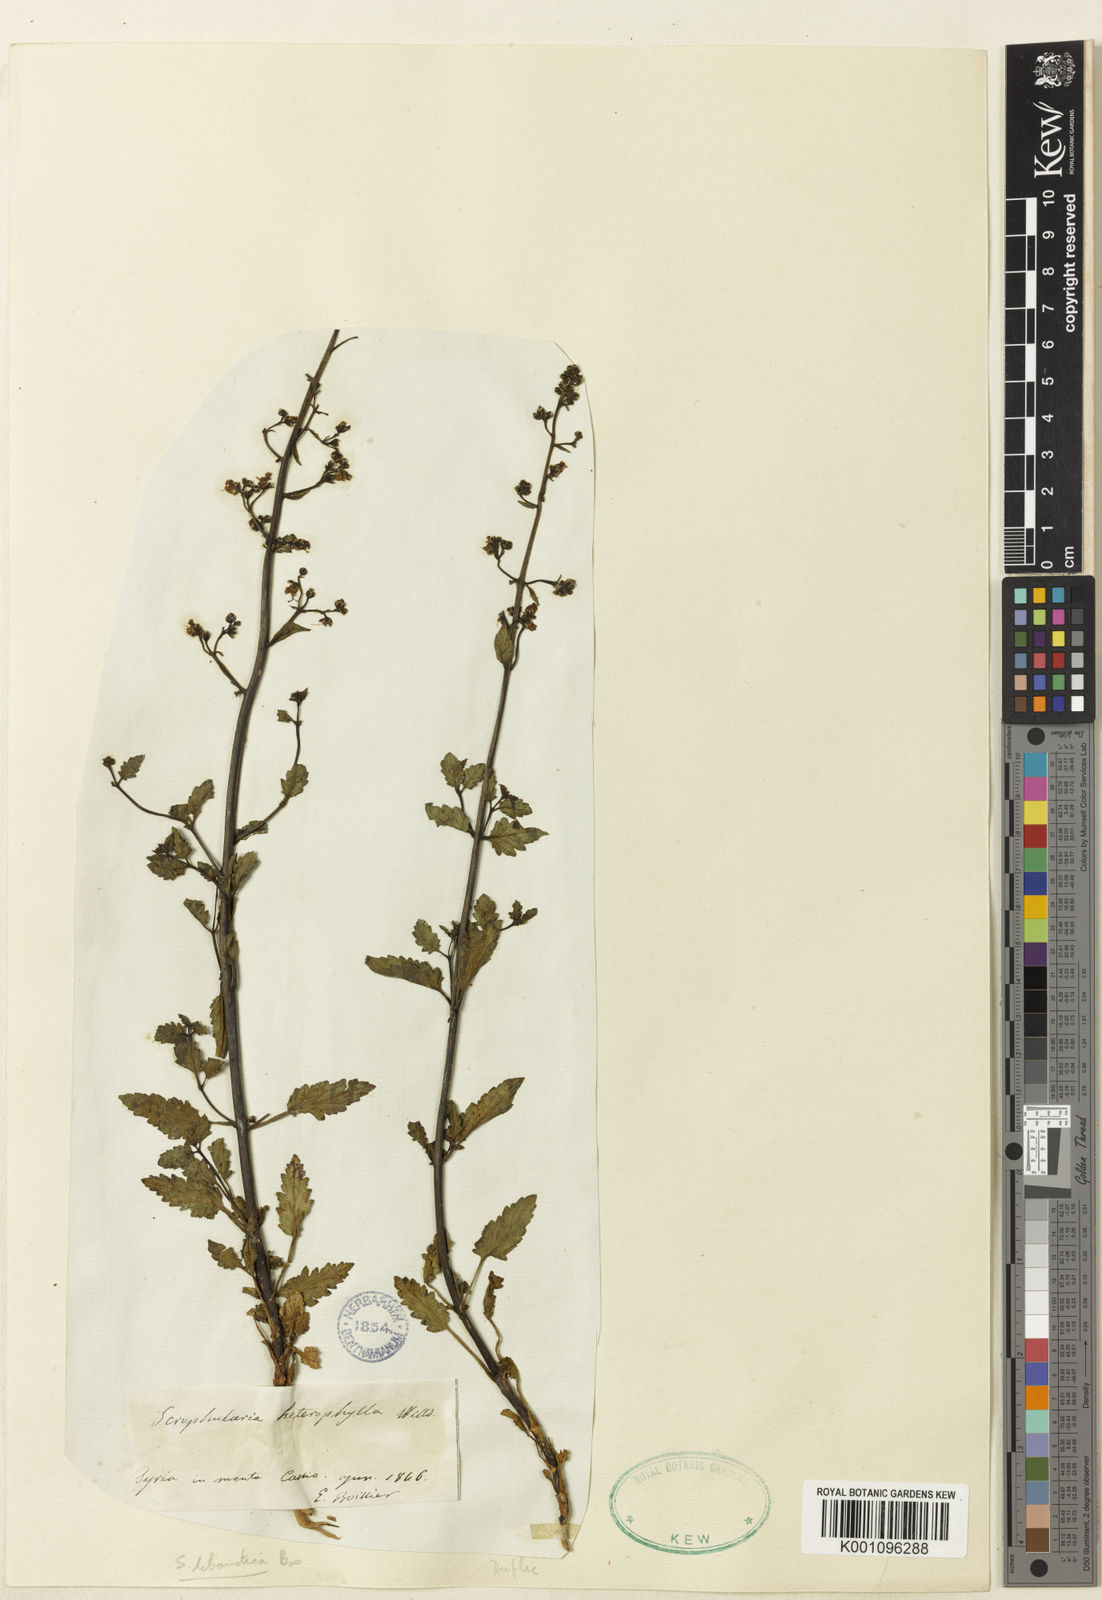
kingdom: Plantae
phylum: Tracheophyta
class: Magnoliopsida
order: Lamiales
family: Scrophulariaceae
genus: Scrophularia
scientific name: Scrophularia heterophylla
